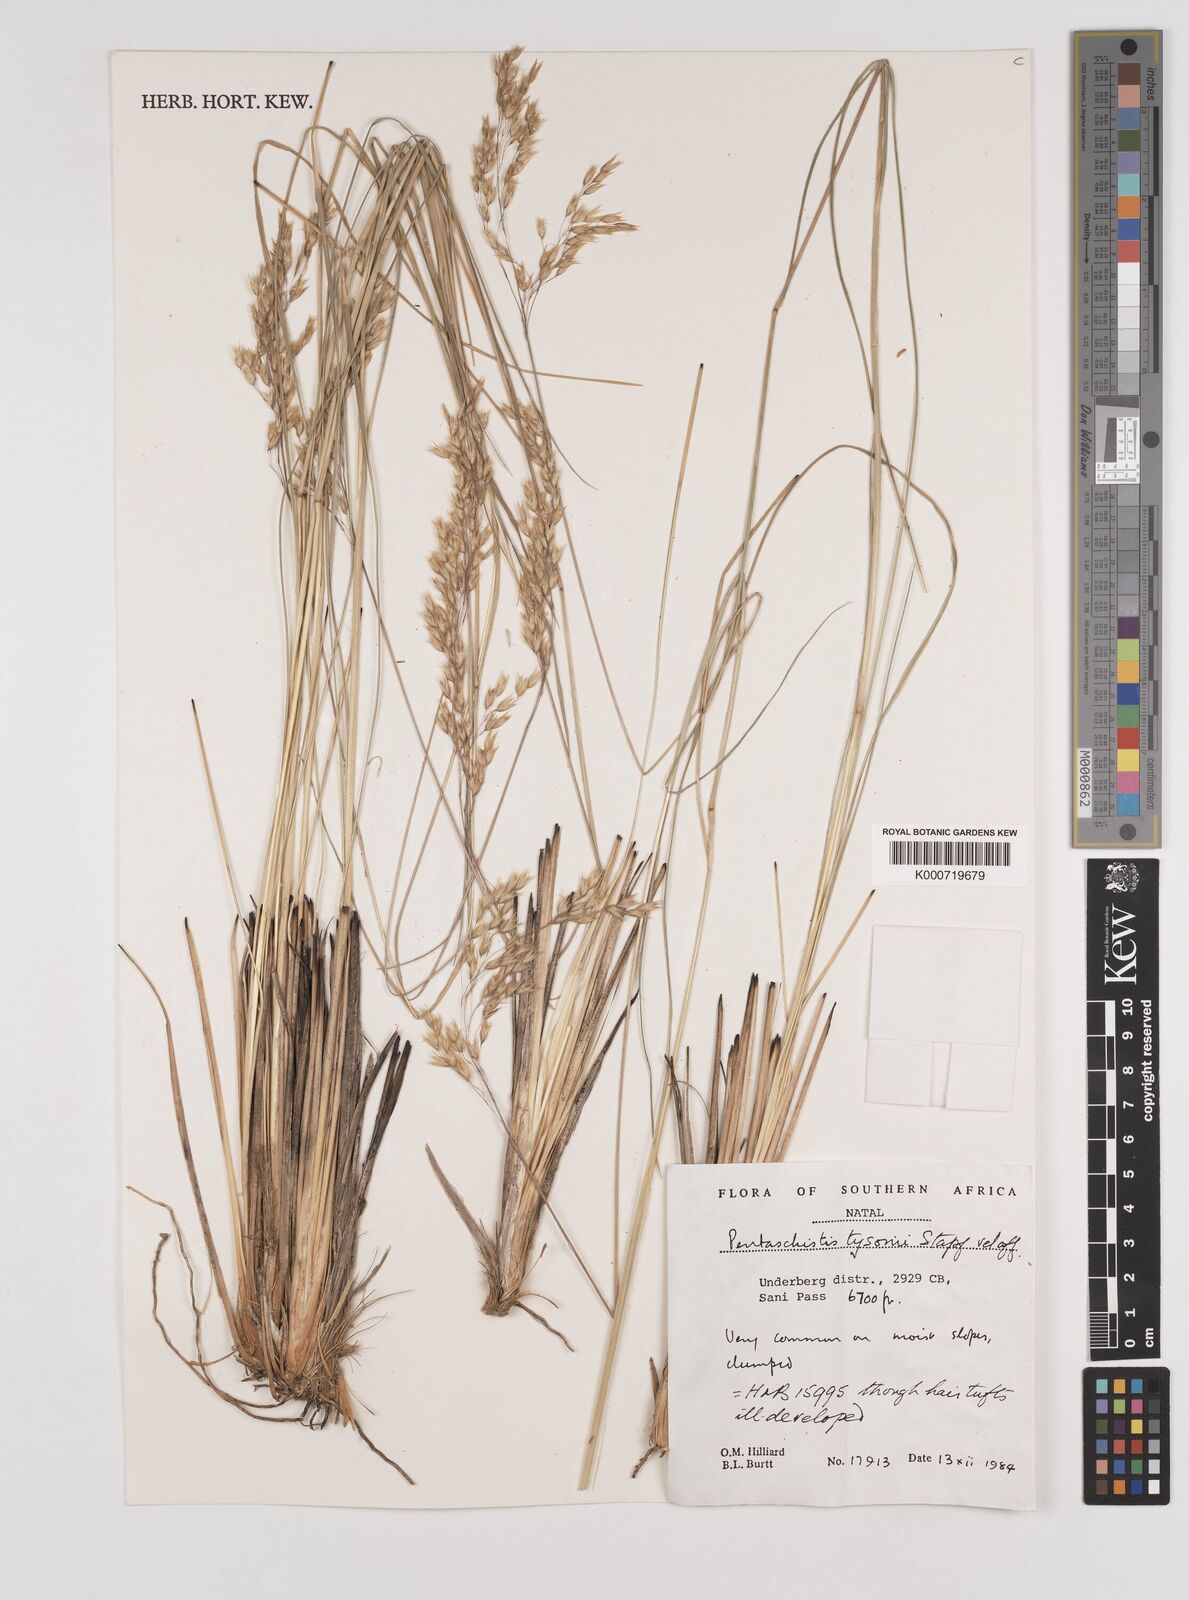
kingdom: Plantae
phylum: Tracheophyta
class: Liliopsida
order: Poales
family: Poaceae
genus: Pentameris
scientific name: Pentameris tysonii
